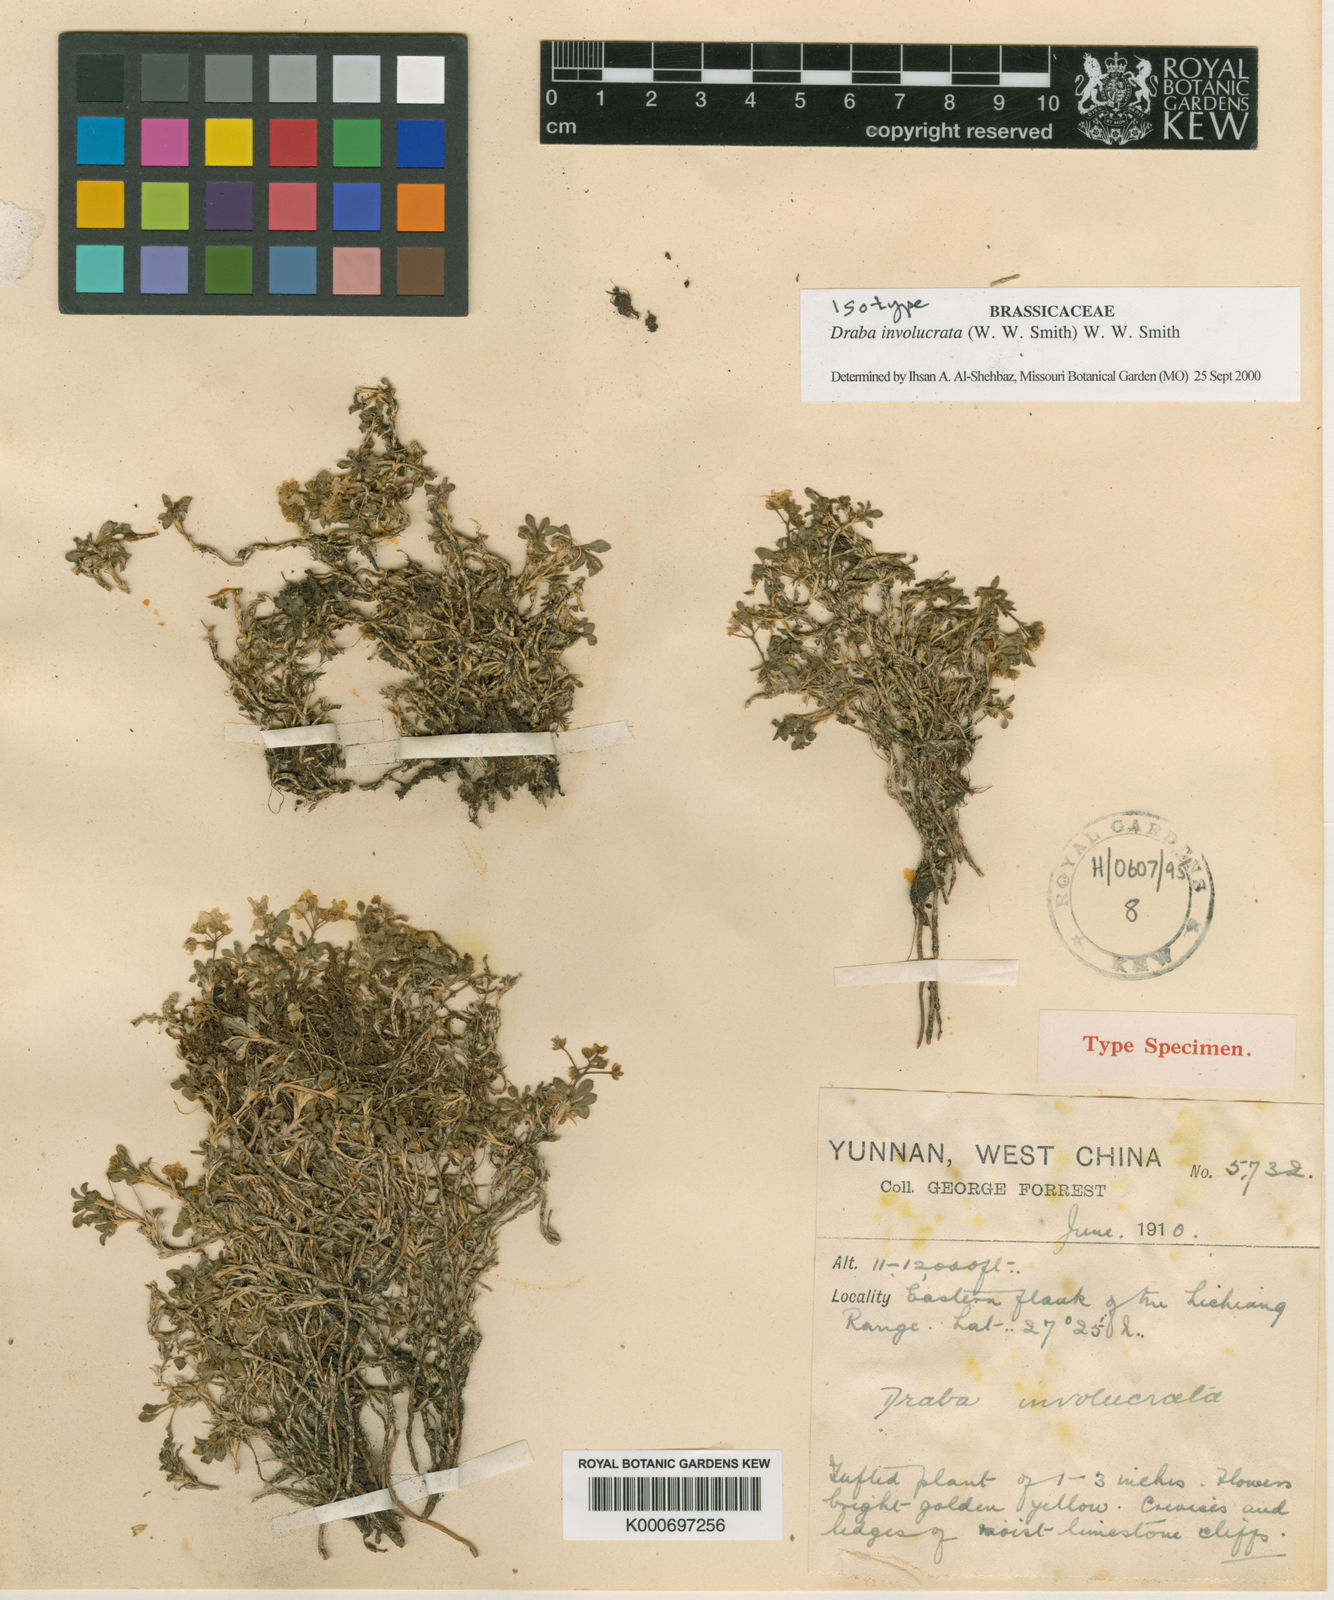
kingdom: Plantae
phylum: Tracheophyta
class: Magnoliopsida
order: Brassicales
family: Brassicaceae
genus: Draba
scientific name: Draba involucrata
